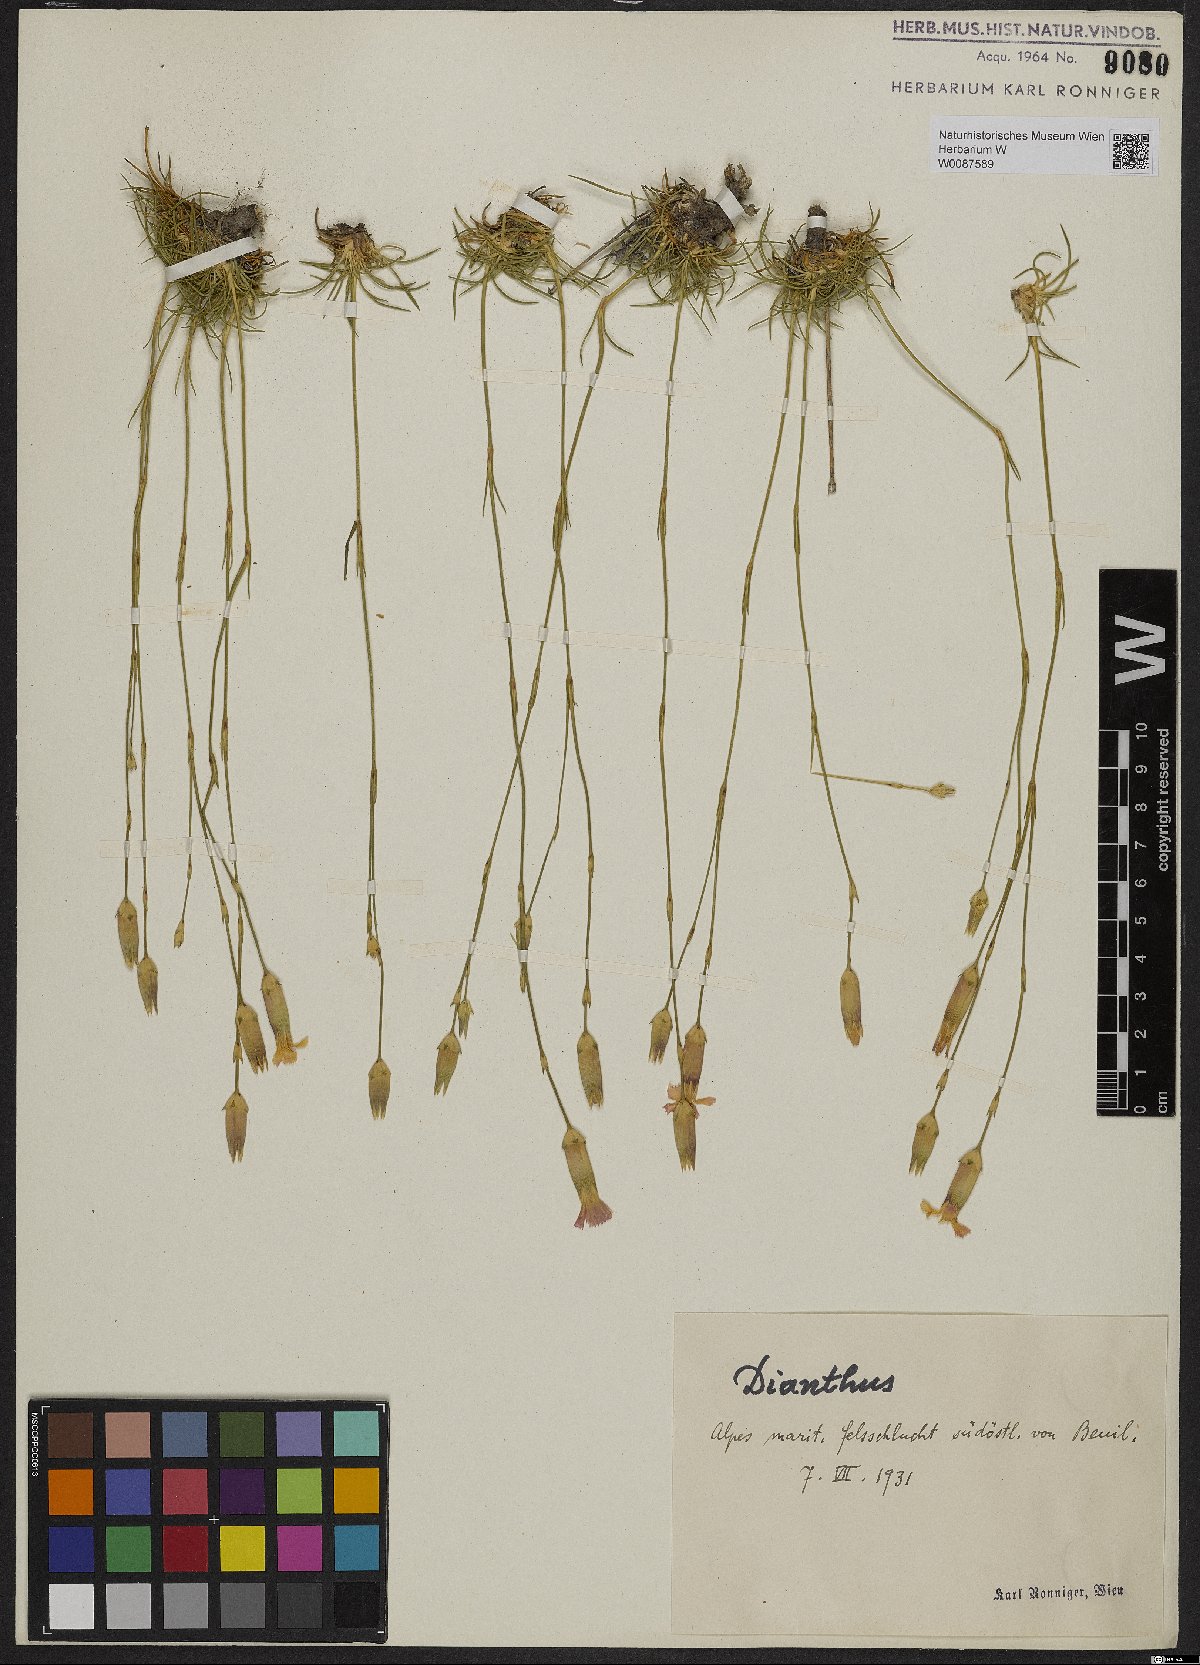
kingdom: Plantae
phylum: Tracheophyta
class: Magnoliopsida
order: Caryophyllales
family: Caryophyllaceae
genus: Dianthus
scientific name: Dianthus
